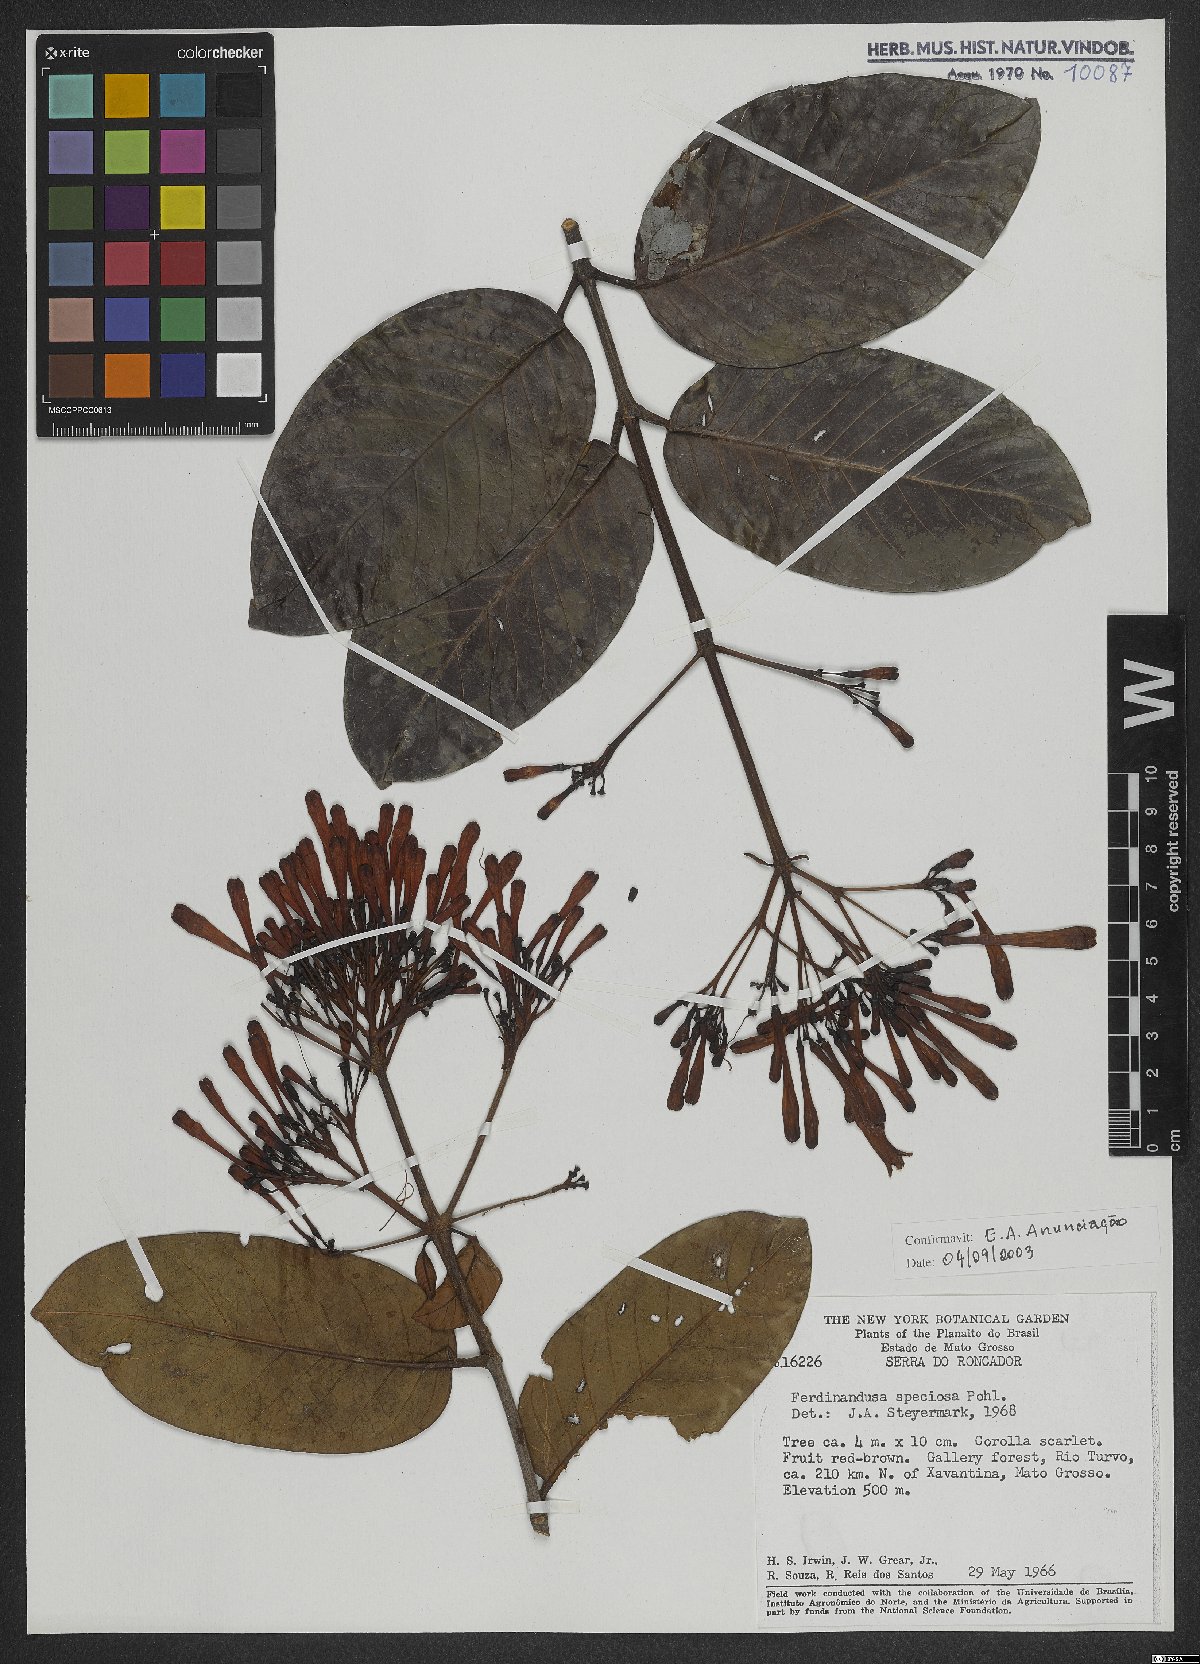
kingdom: Plantae
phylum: Tracheophyta
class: Magnoliopsida
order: Gentianales
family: Rubiaceae
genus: Ferdinandusa
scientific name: Ferdinandusa speciosa
